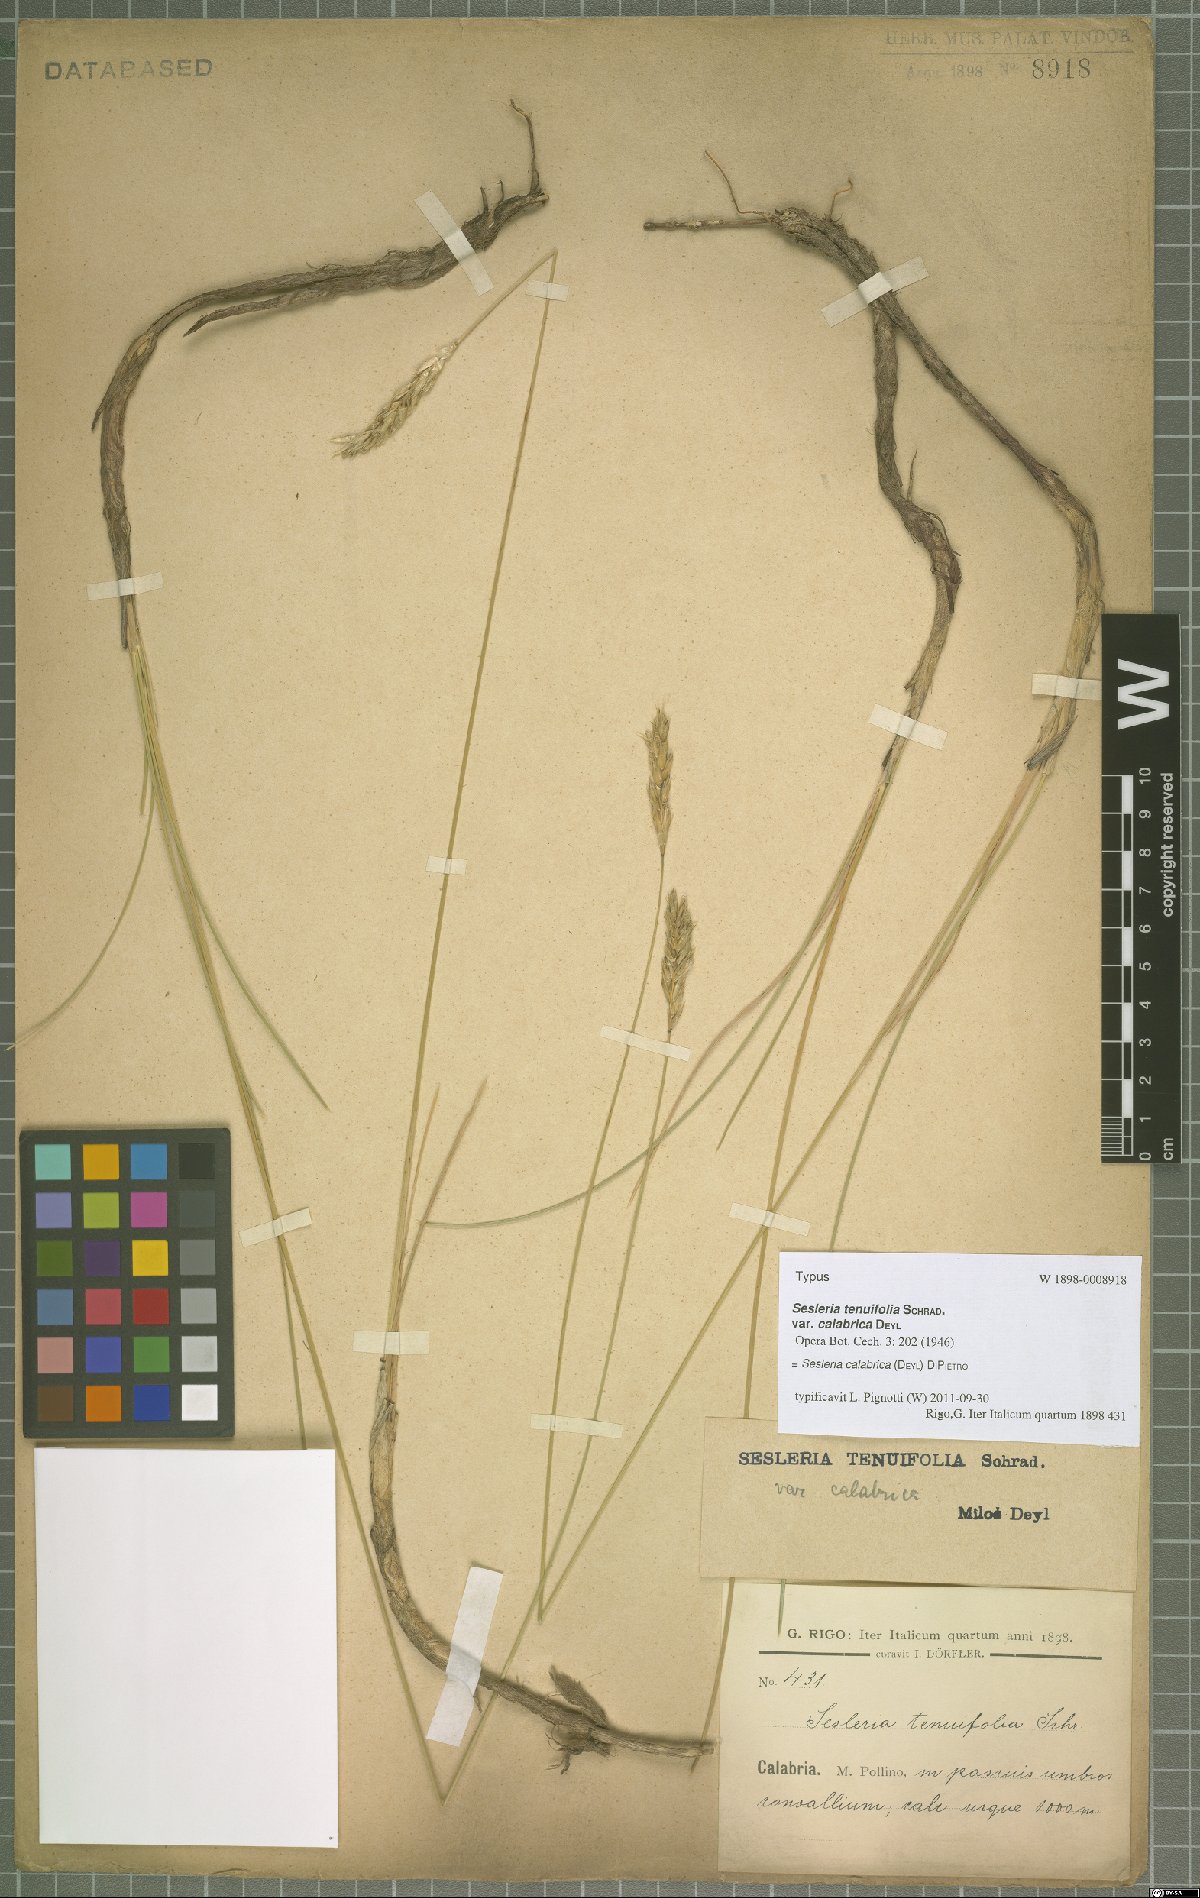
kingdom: Plantae
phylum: Tracheophyta
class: Liliopsida
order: Poales
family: Poaceae
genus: Sesleria
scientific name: Sesleria calabrica
